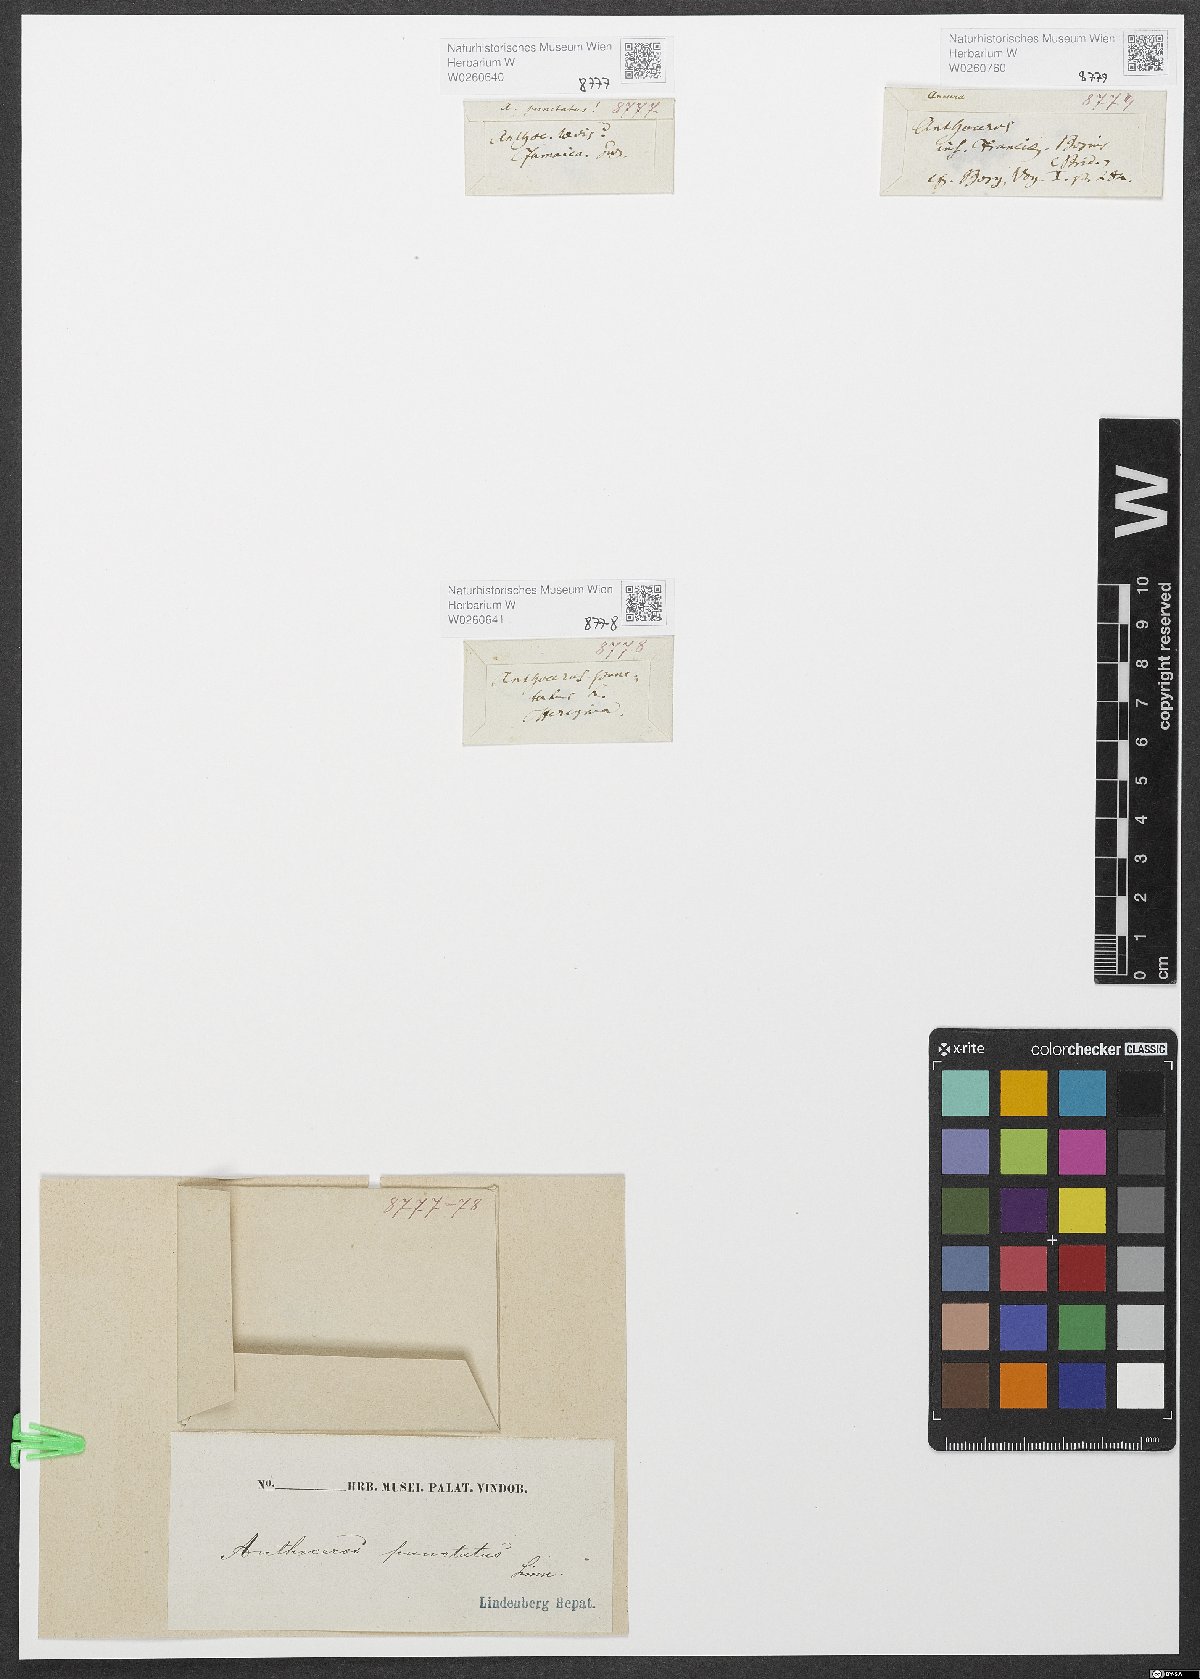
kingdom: Plantae
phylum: Anthocerotophyta
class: Anthocerotopsida
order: Anthocerotales
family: Anthocerotaceae
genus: Anthoceros
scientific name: Anthoceros punctatus
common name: Dotted hornwort
